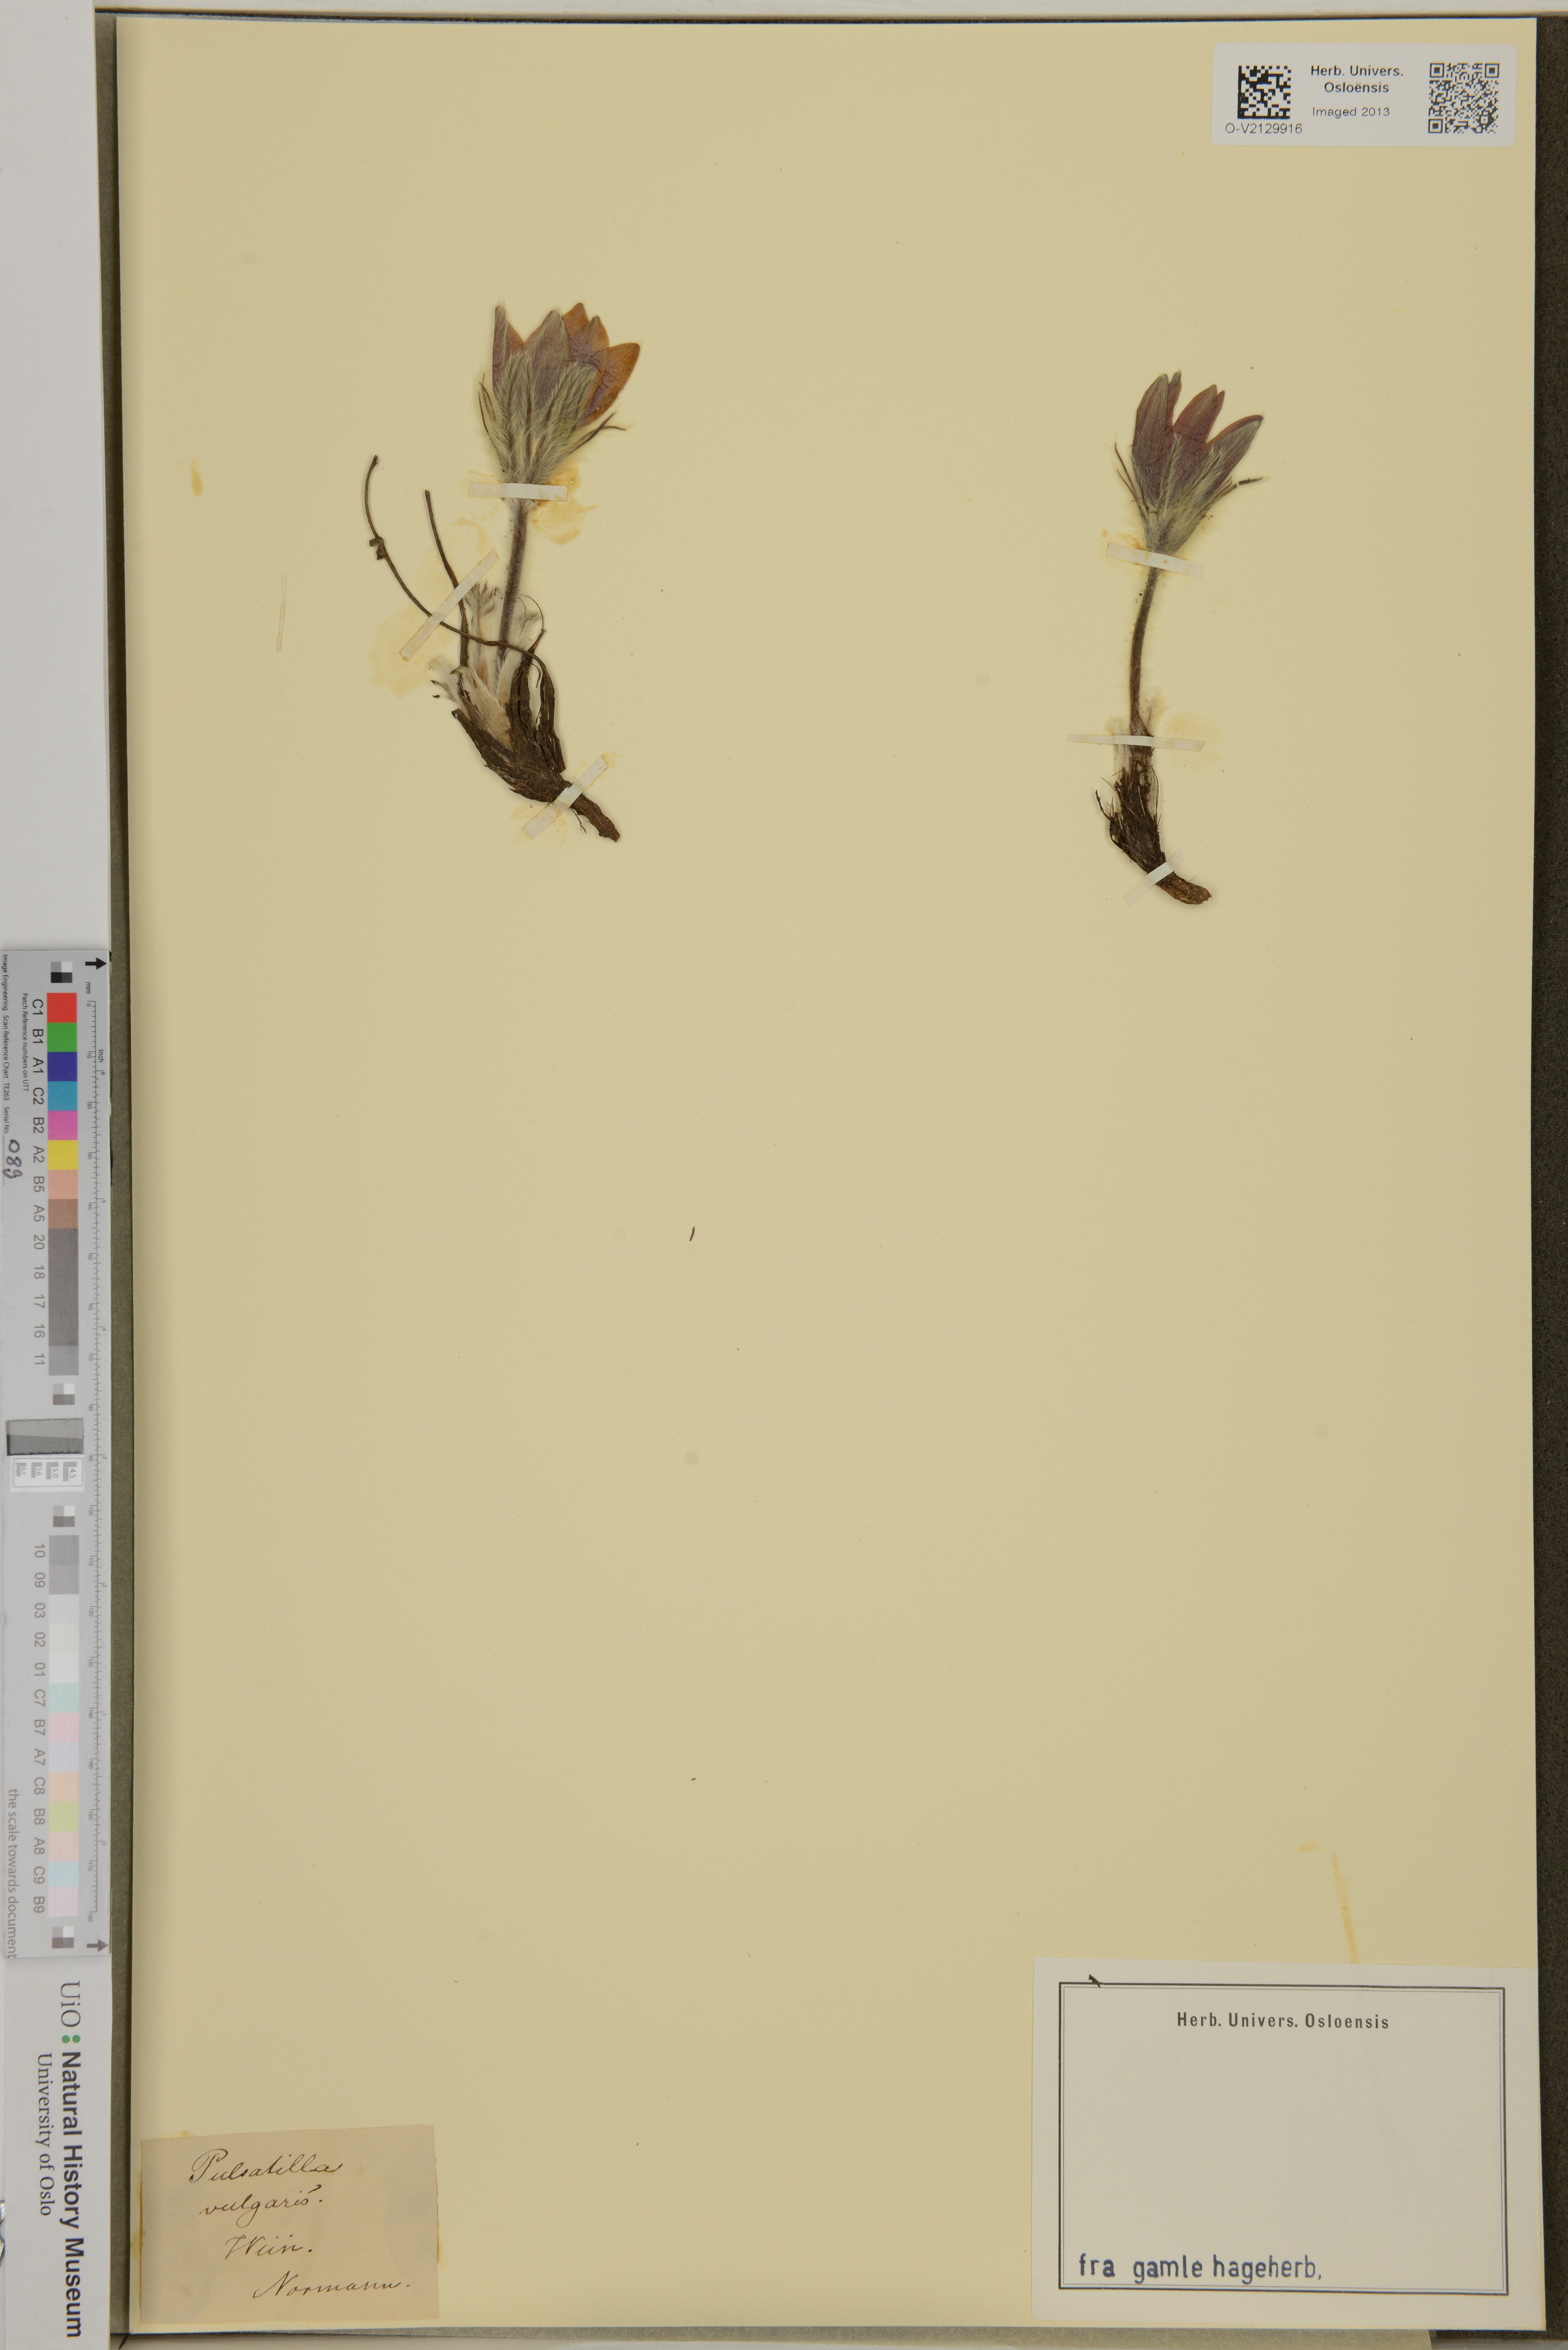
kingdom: Plantae
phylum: Tracheophyta
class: Magnoliopsida
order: Ranunculales
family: Ranunculaceae
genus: Pulsatilla
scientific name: Pulsatilla vulgaris
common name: Pasqueflower
